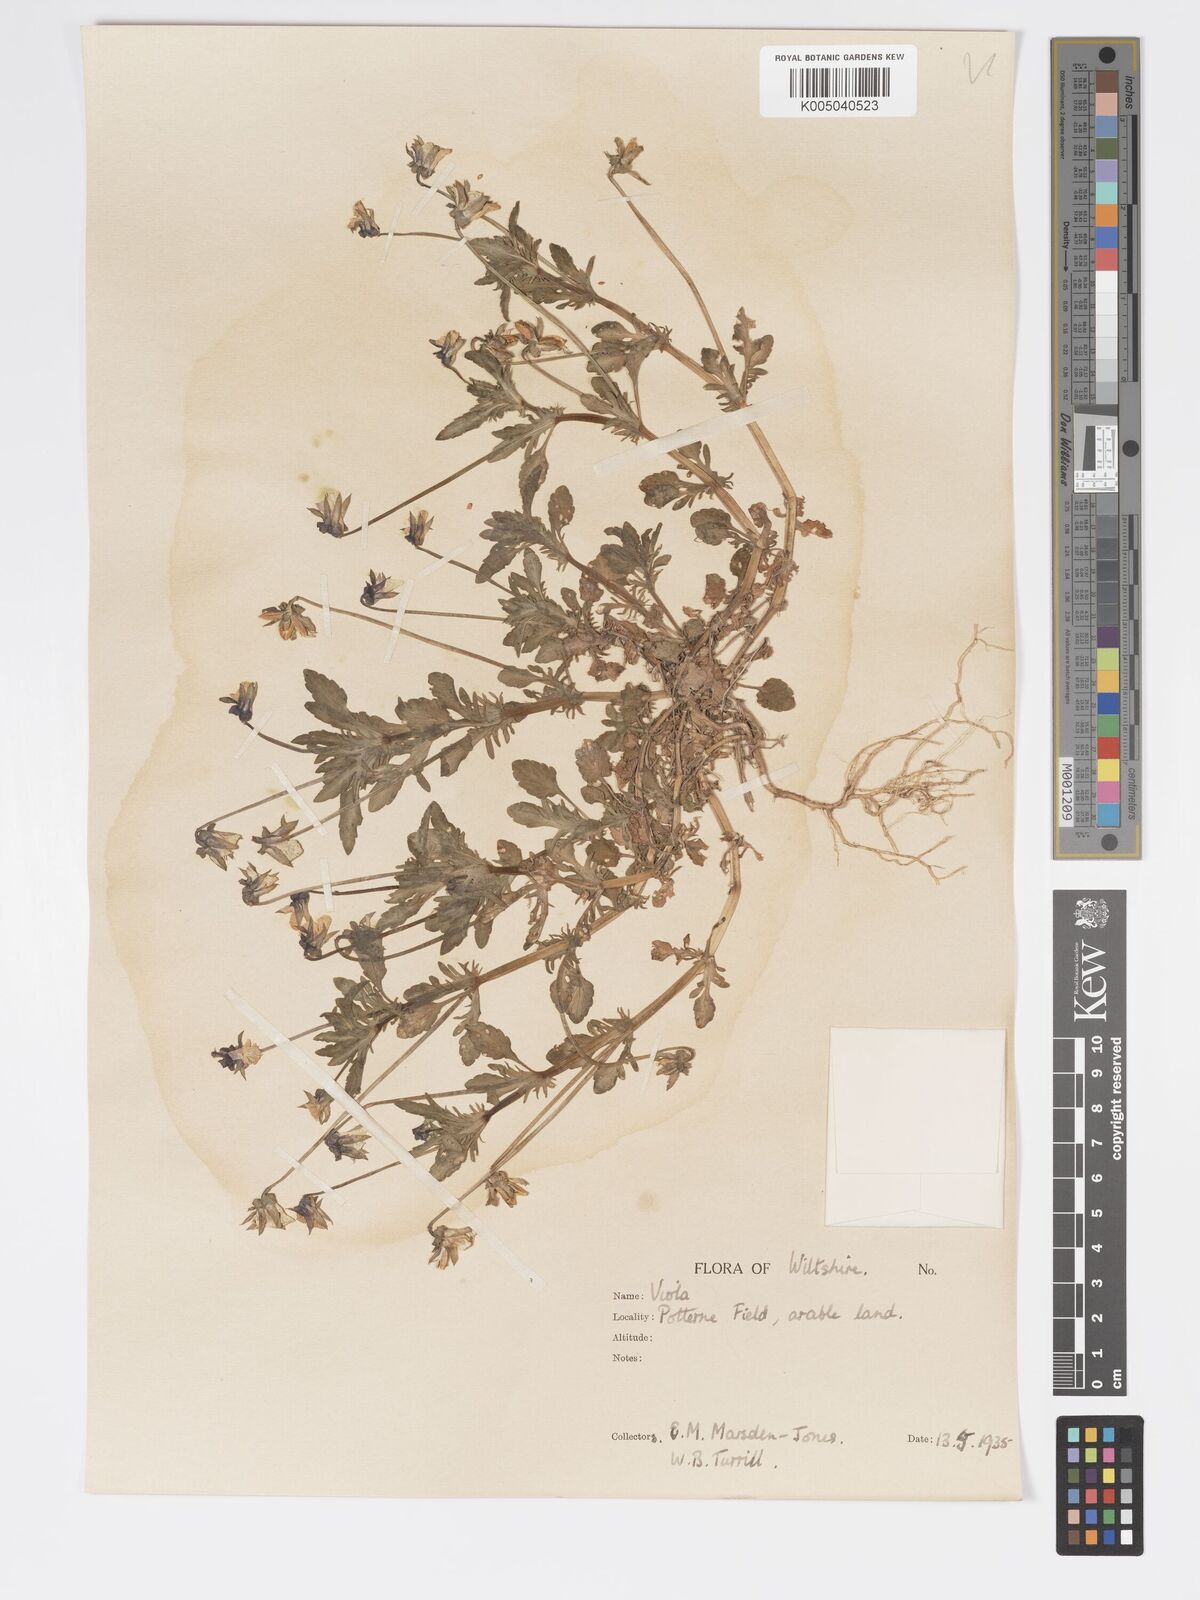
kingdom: Plantae
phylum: Tracheophyta
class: Magnoliopsida
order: Malpighiales
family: Violaceae
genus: Viola
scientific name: Viola
